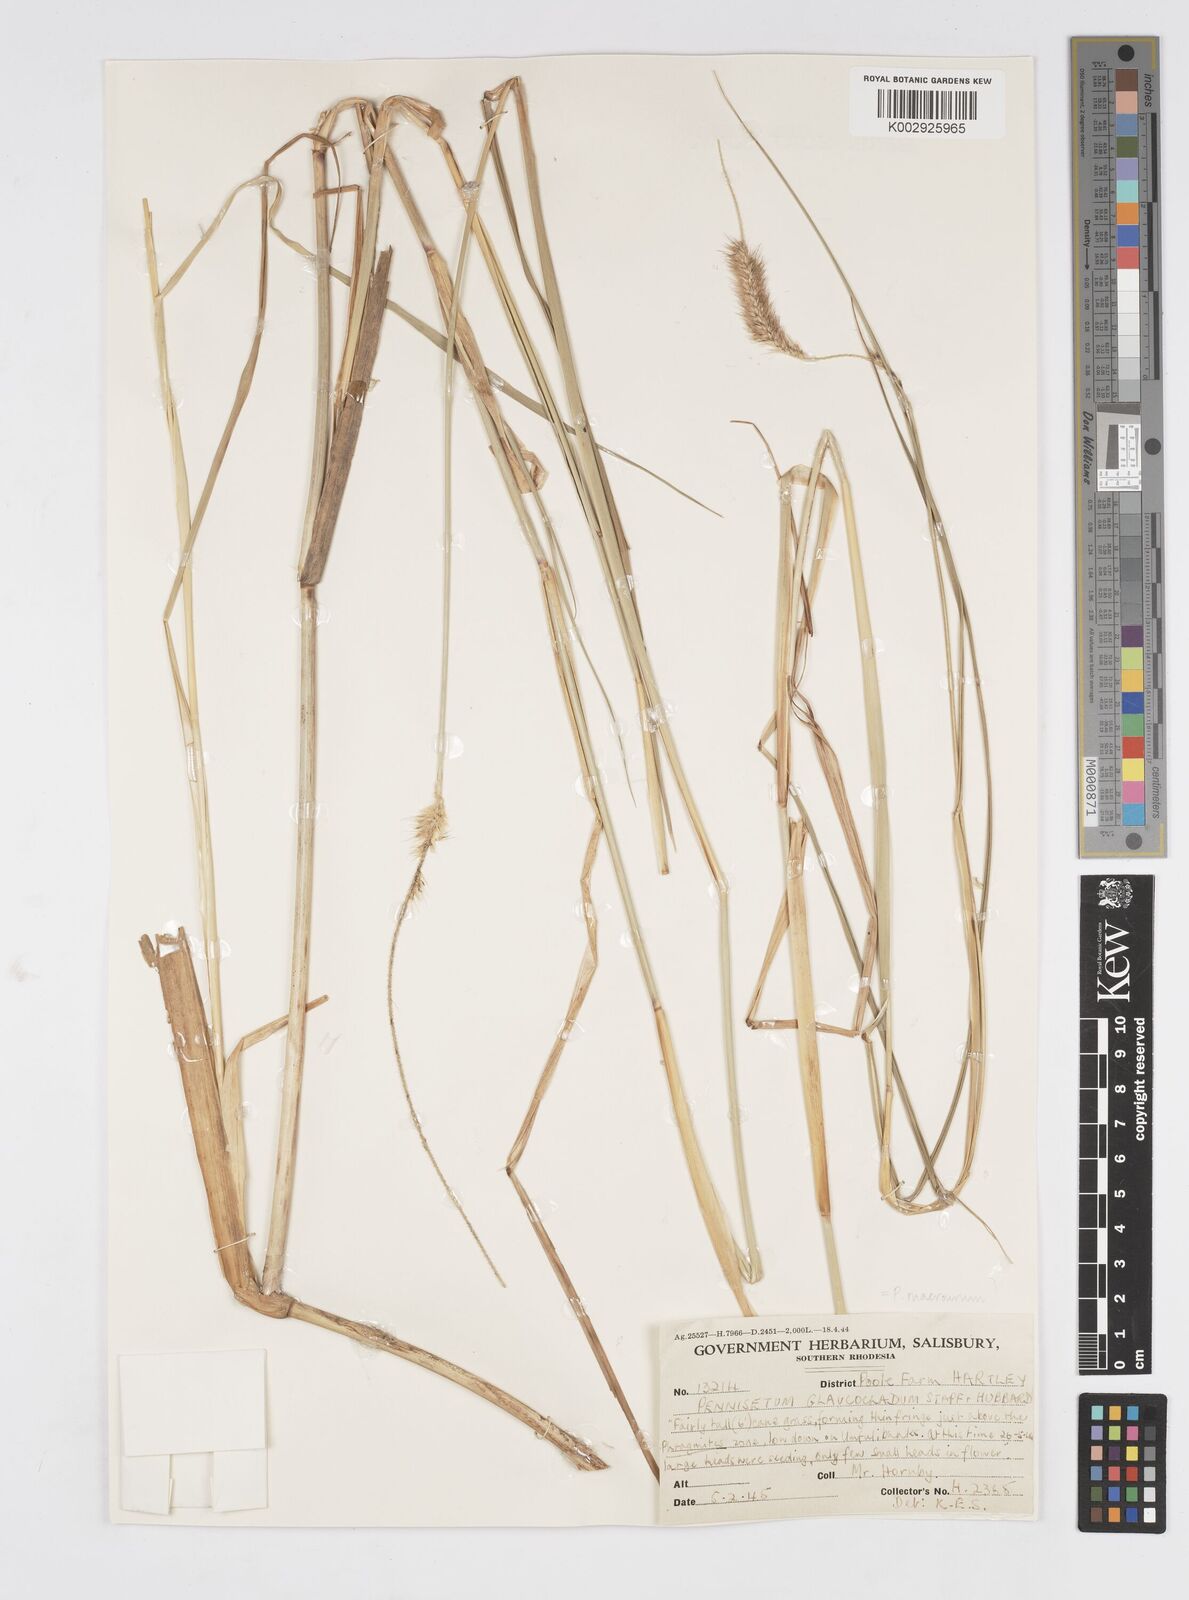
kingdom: Plantae
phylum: Tracheophyta
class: Liliopsida
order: Poales
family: Poaceae
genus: Cenchrus
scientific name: Cenchrus caudatus
